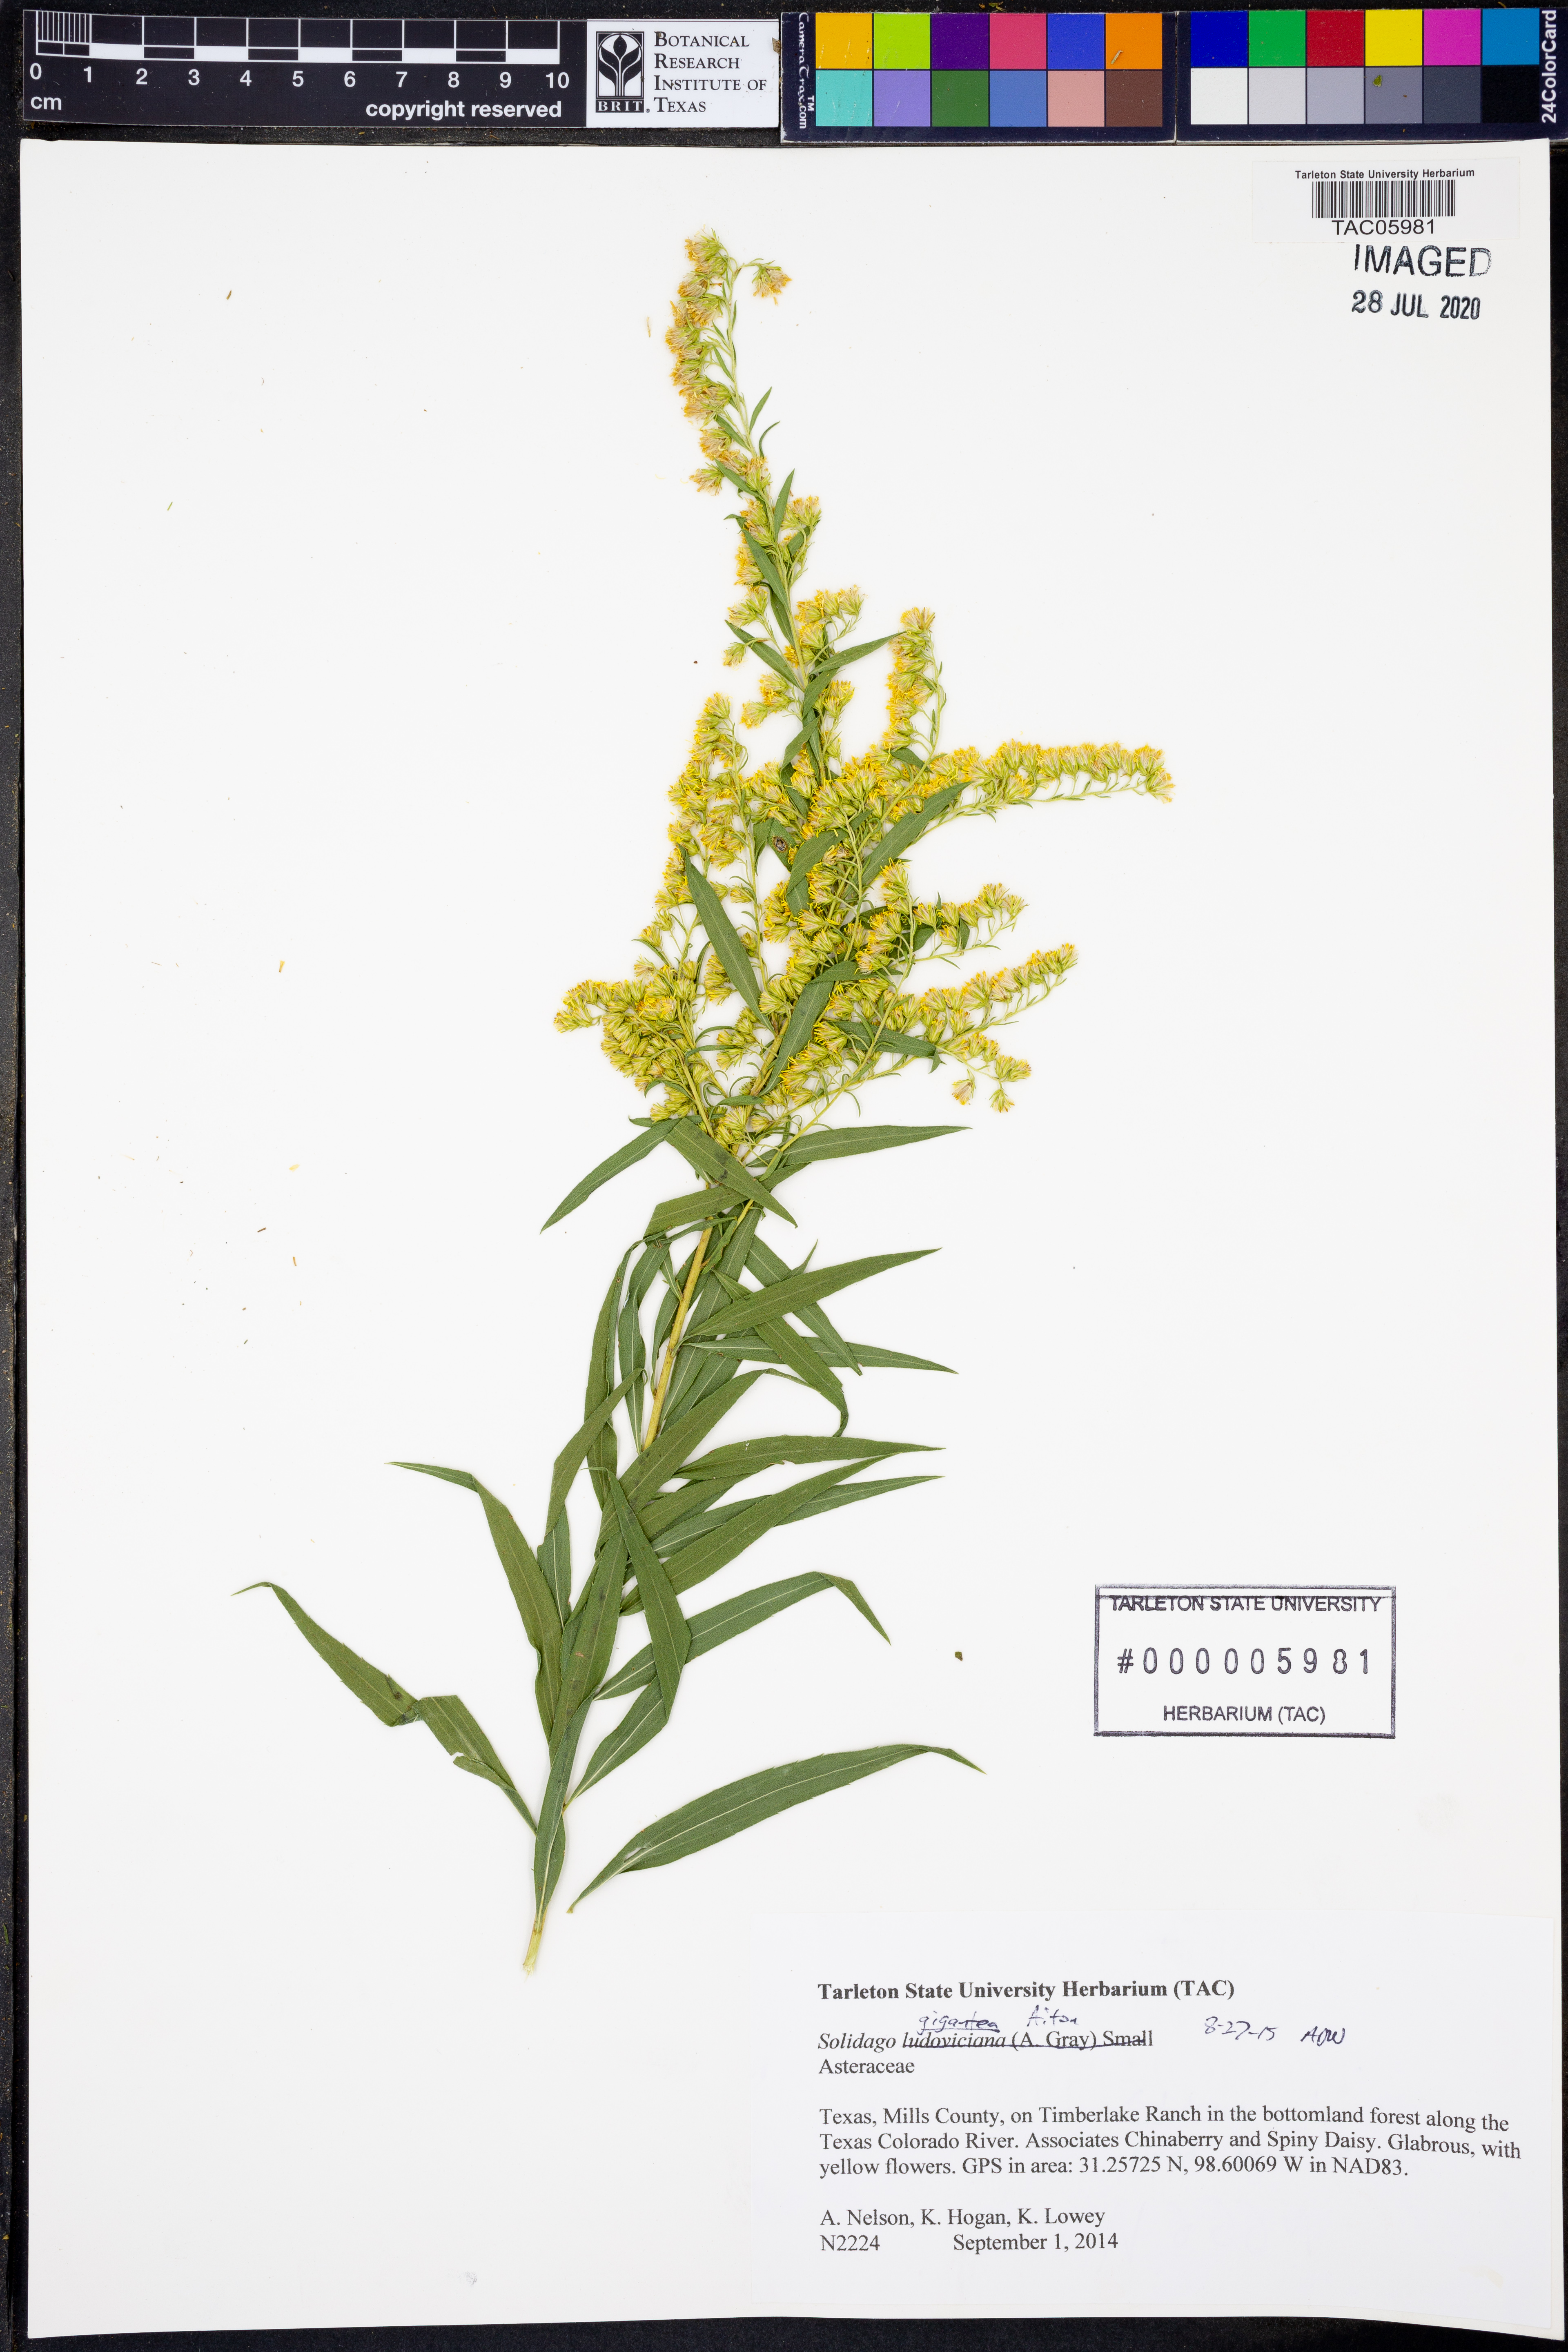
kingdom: Plantae
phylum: Tracheophyta
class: Magnoliopsida
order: Asterales
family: Asteraceae
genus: Solidago
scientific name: Solidago gigantea
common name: Giant goldenrod
